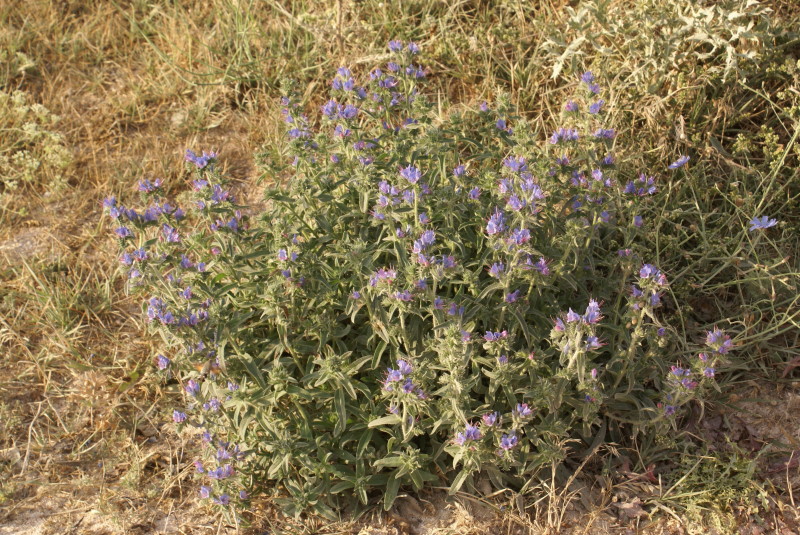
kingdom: Plantae
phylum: Tracheophyta
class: Magnoliopsida
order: Boraginales
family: Boraginaceae
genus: Echium
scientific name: Echium vulgare
